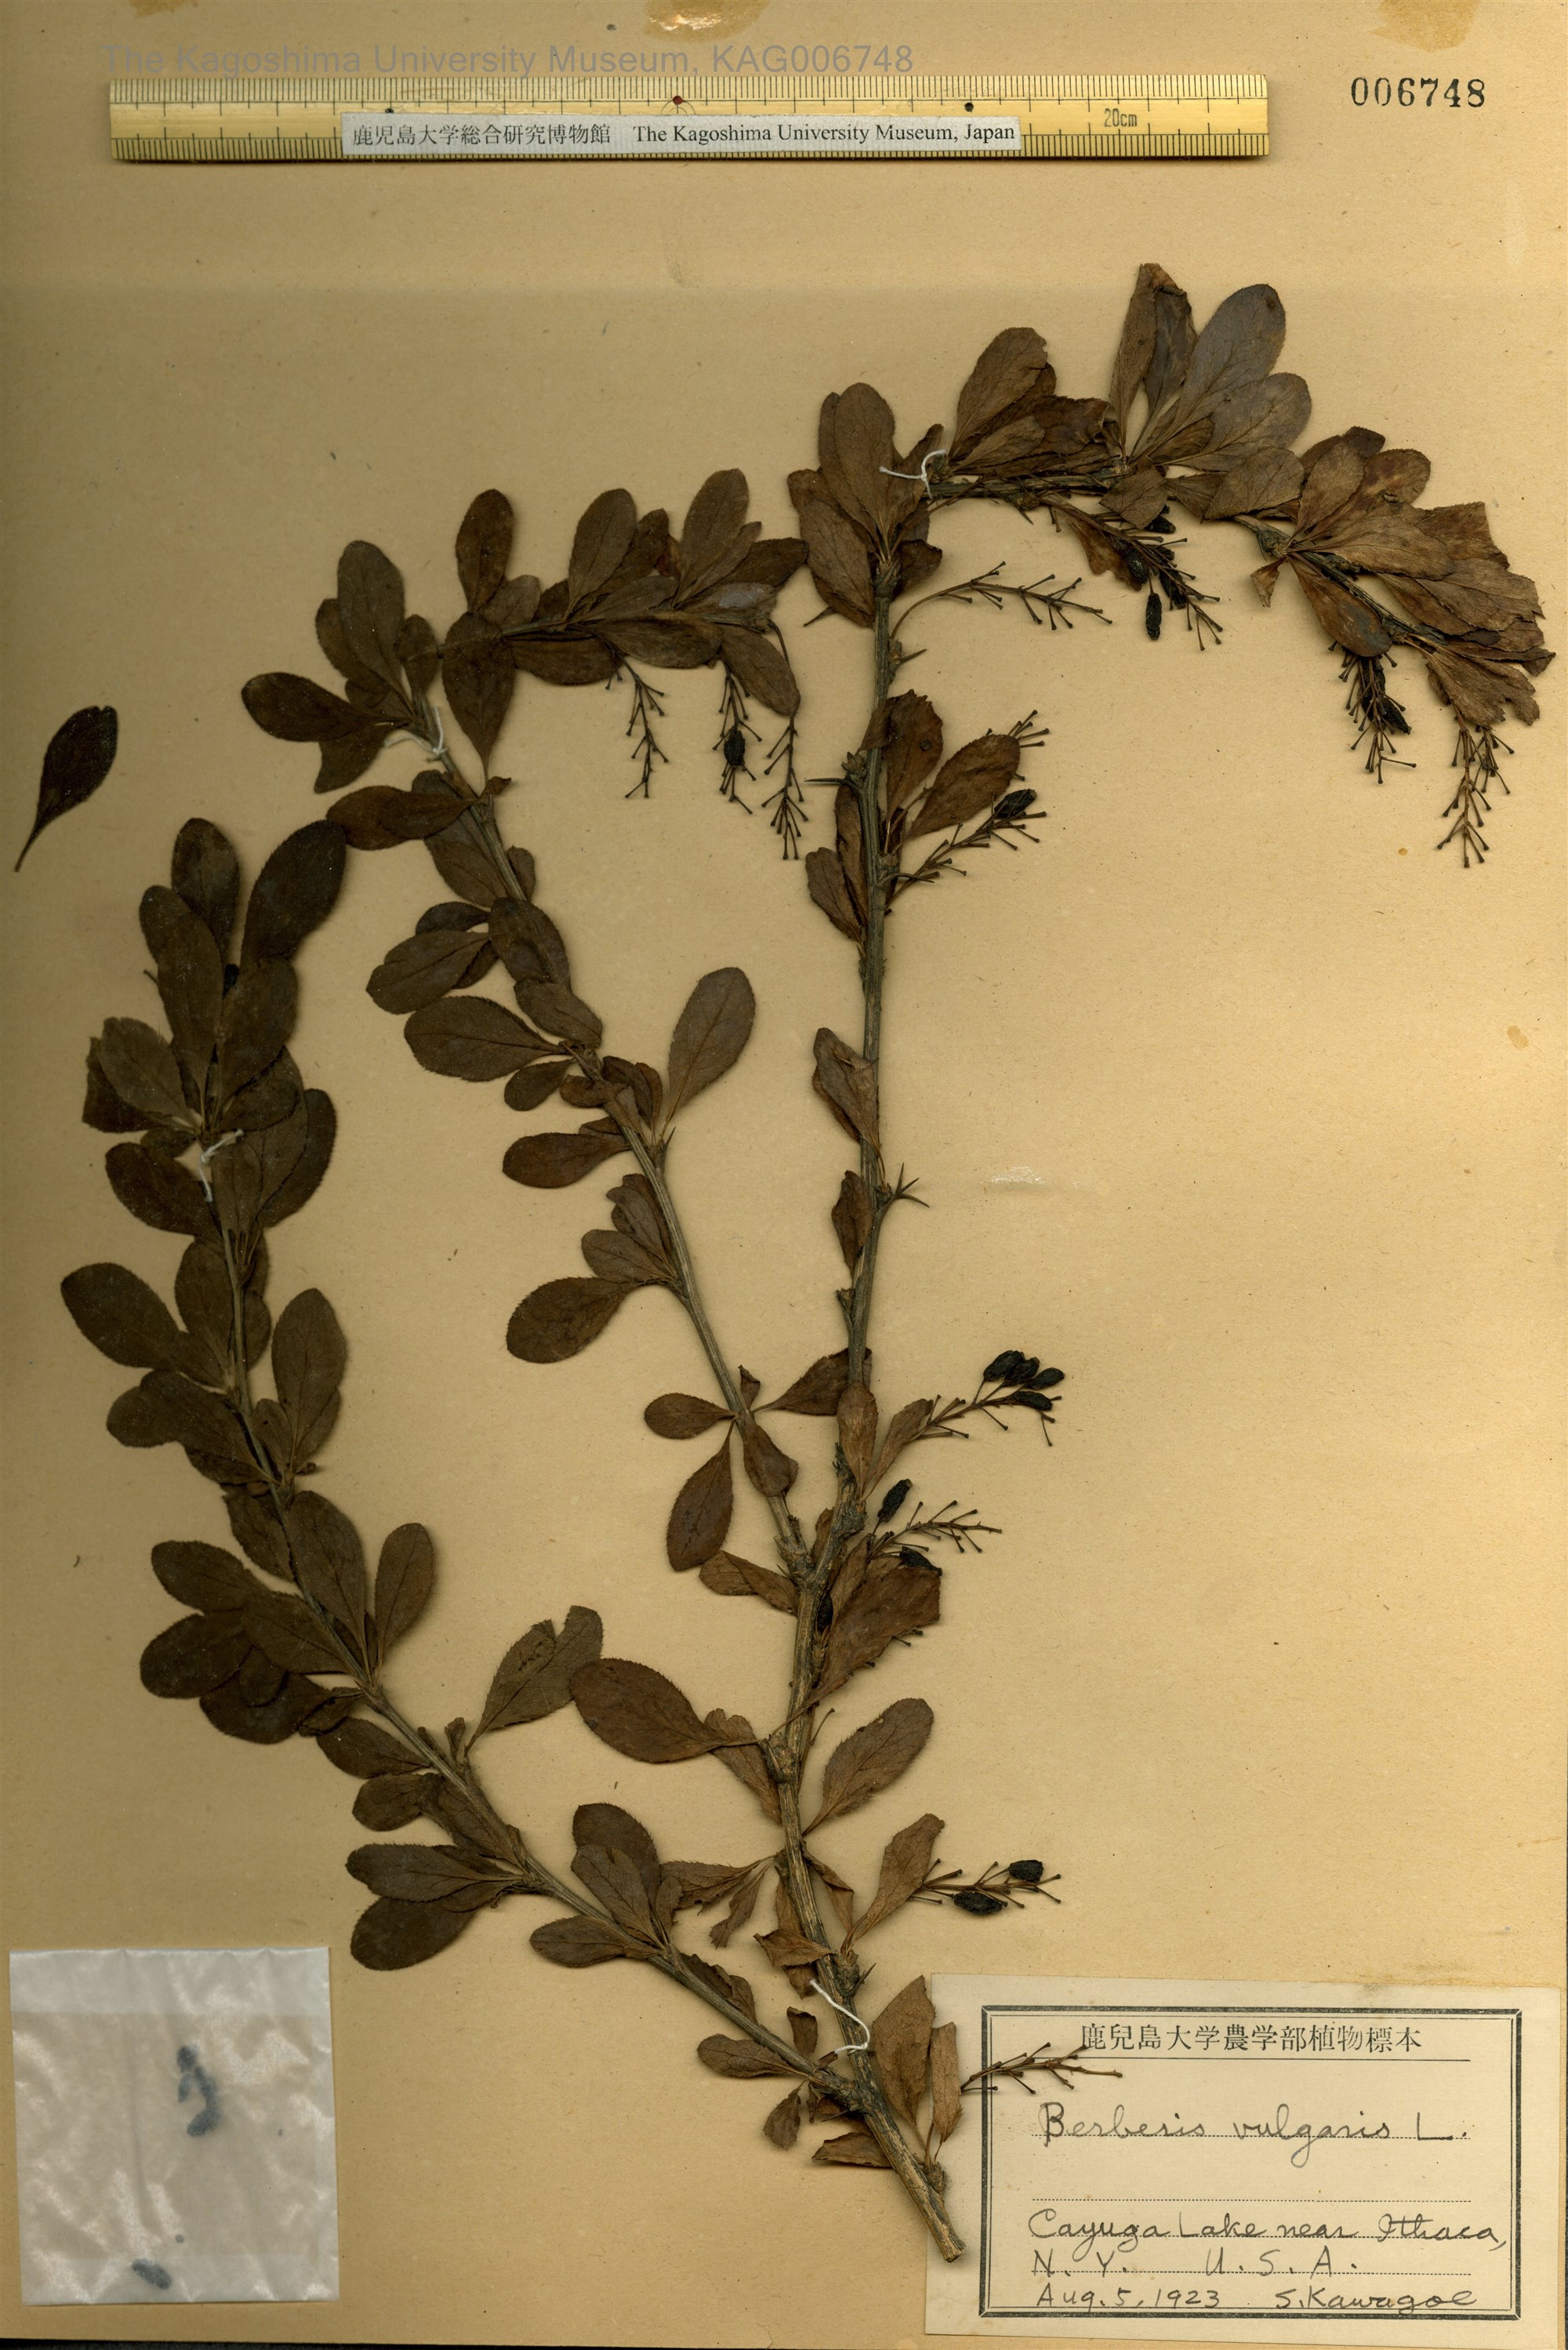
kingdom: Plantae
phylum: Tracheophyta
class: Magnoliopsida
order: Ranunculales
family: Berberidaceae
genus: Berberis
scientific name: Berberis vulgaris
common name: Barberry
